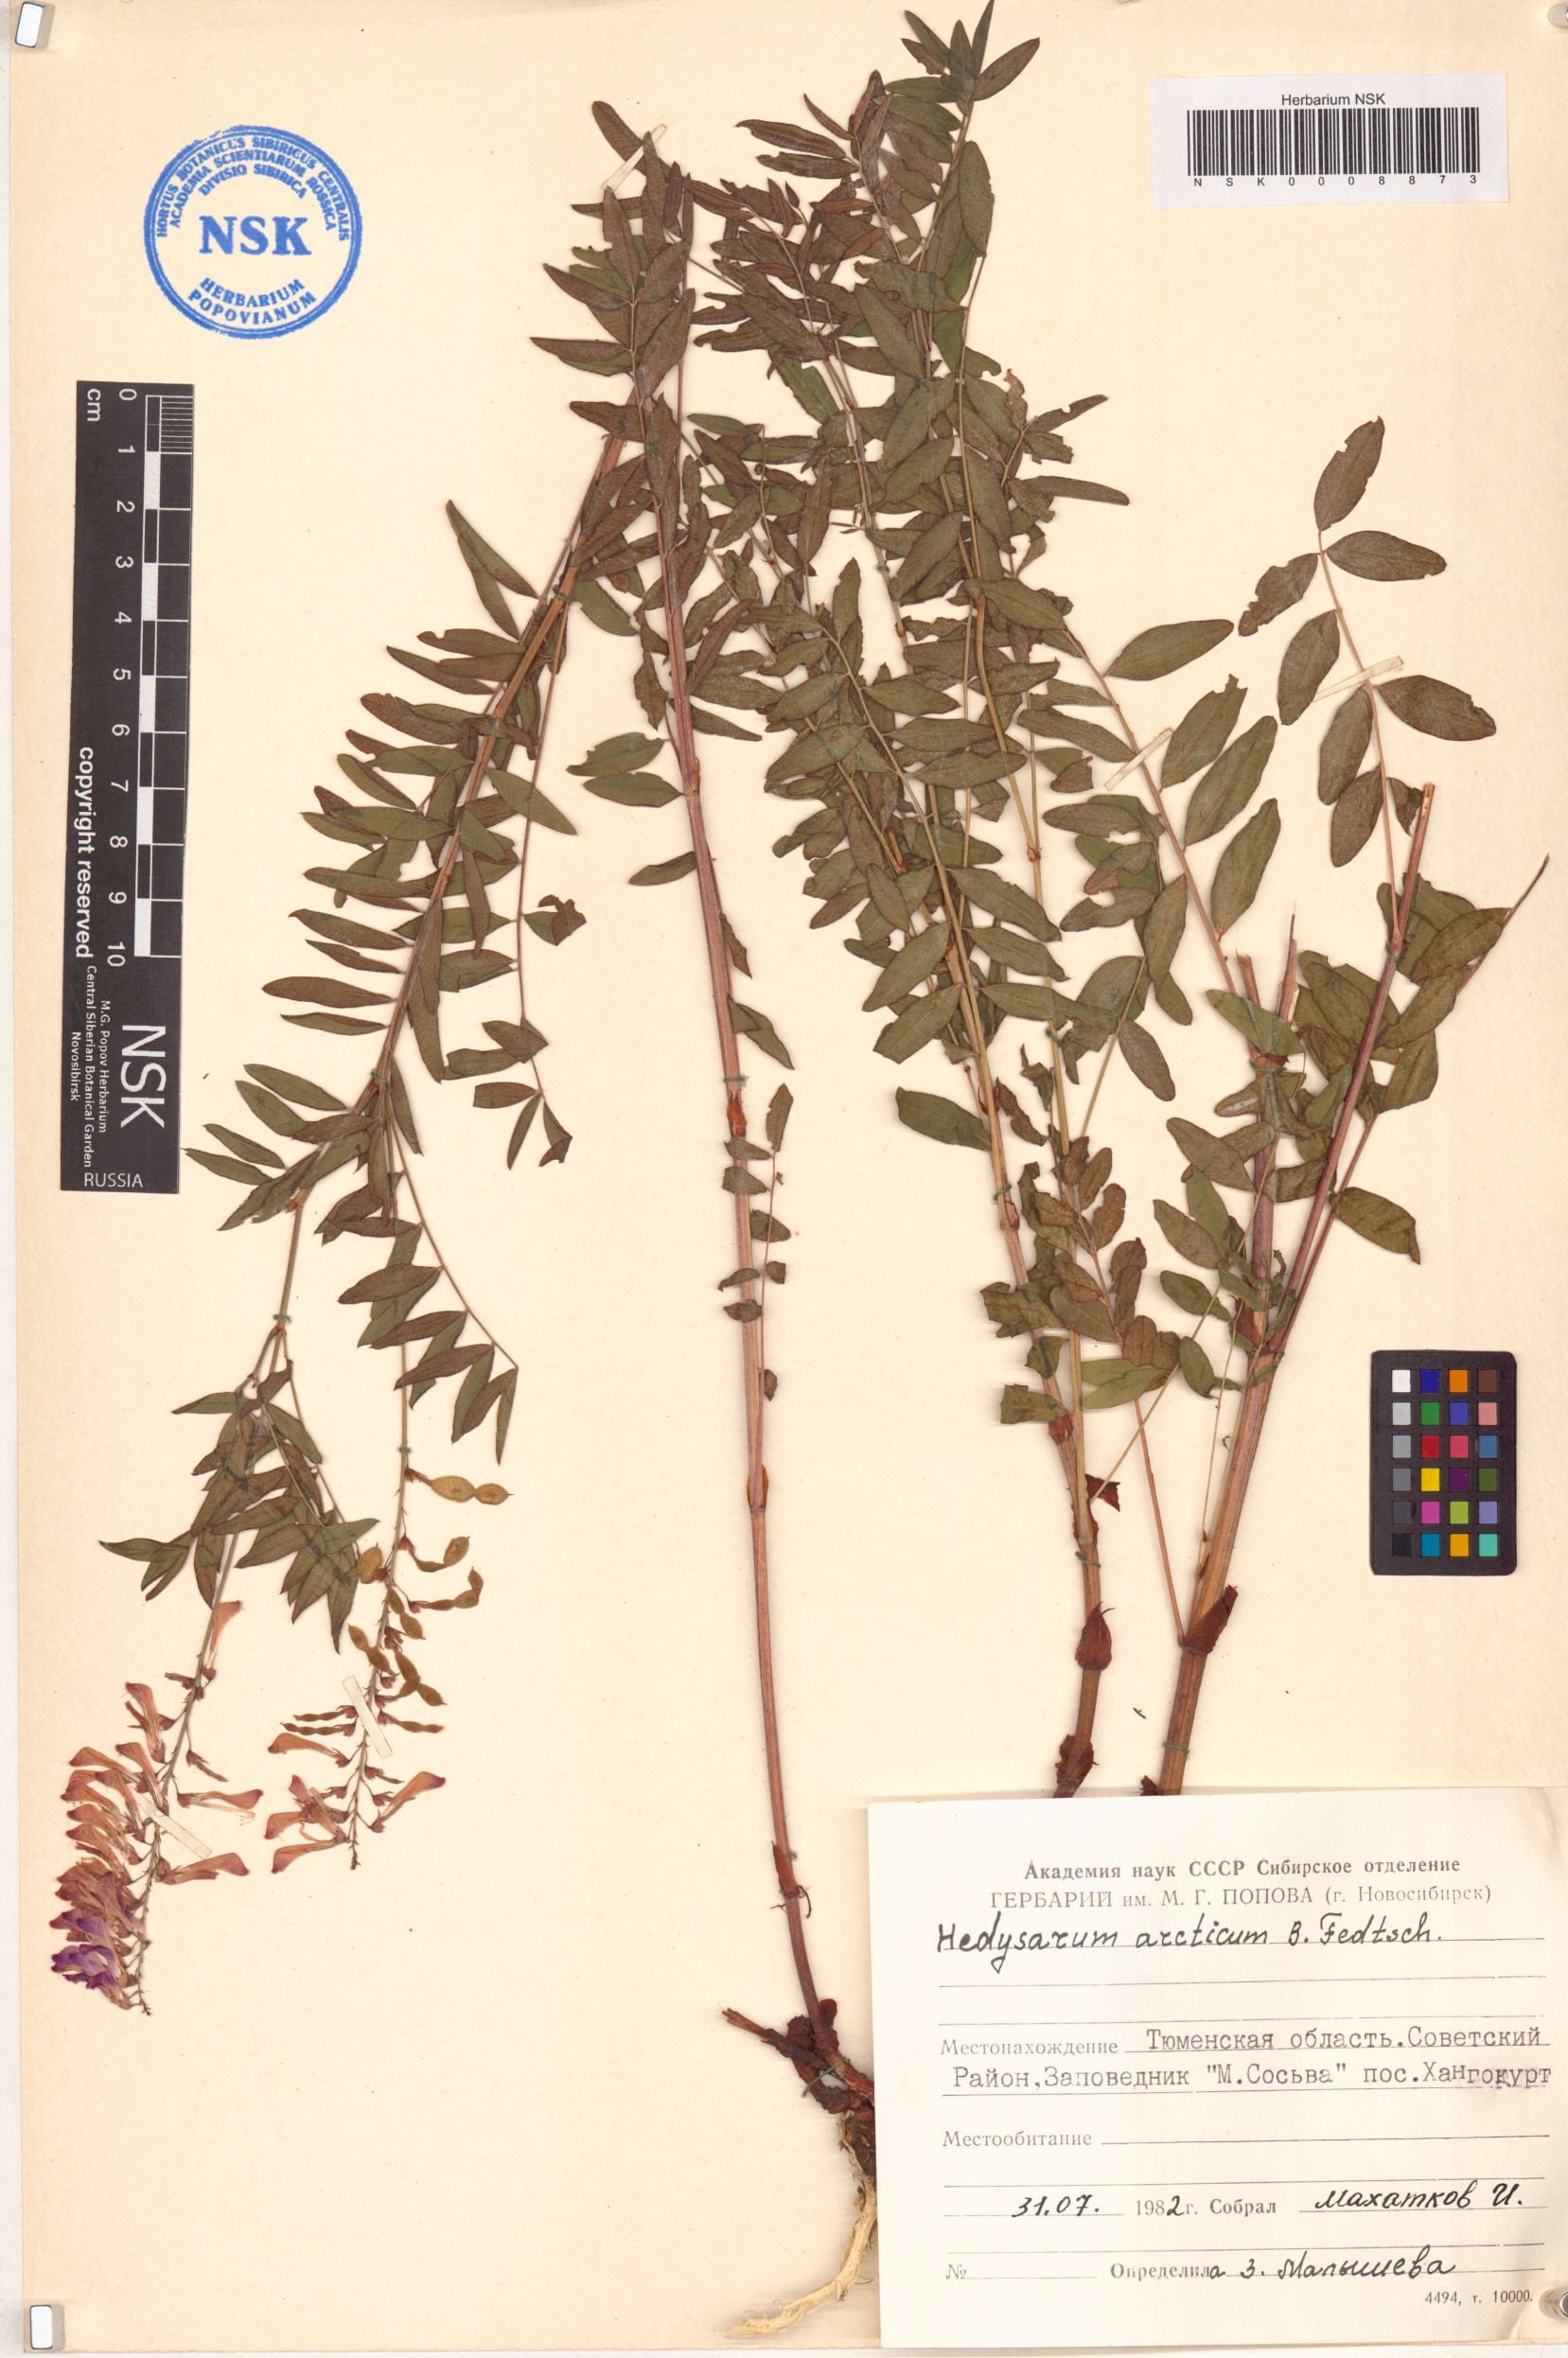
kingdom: Plantae
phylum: Tracheophyta
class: Magnoliopsida
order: Fabales
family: Fabaceae
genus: Hedysarum
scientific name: Hedysarum hedysaroides
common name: Alpine french-honeysuckle
